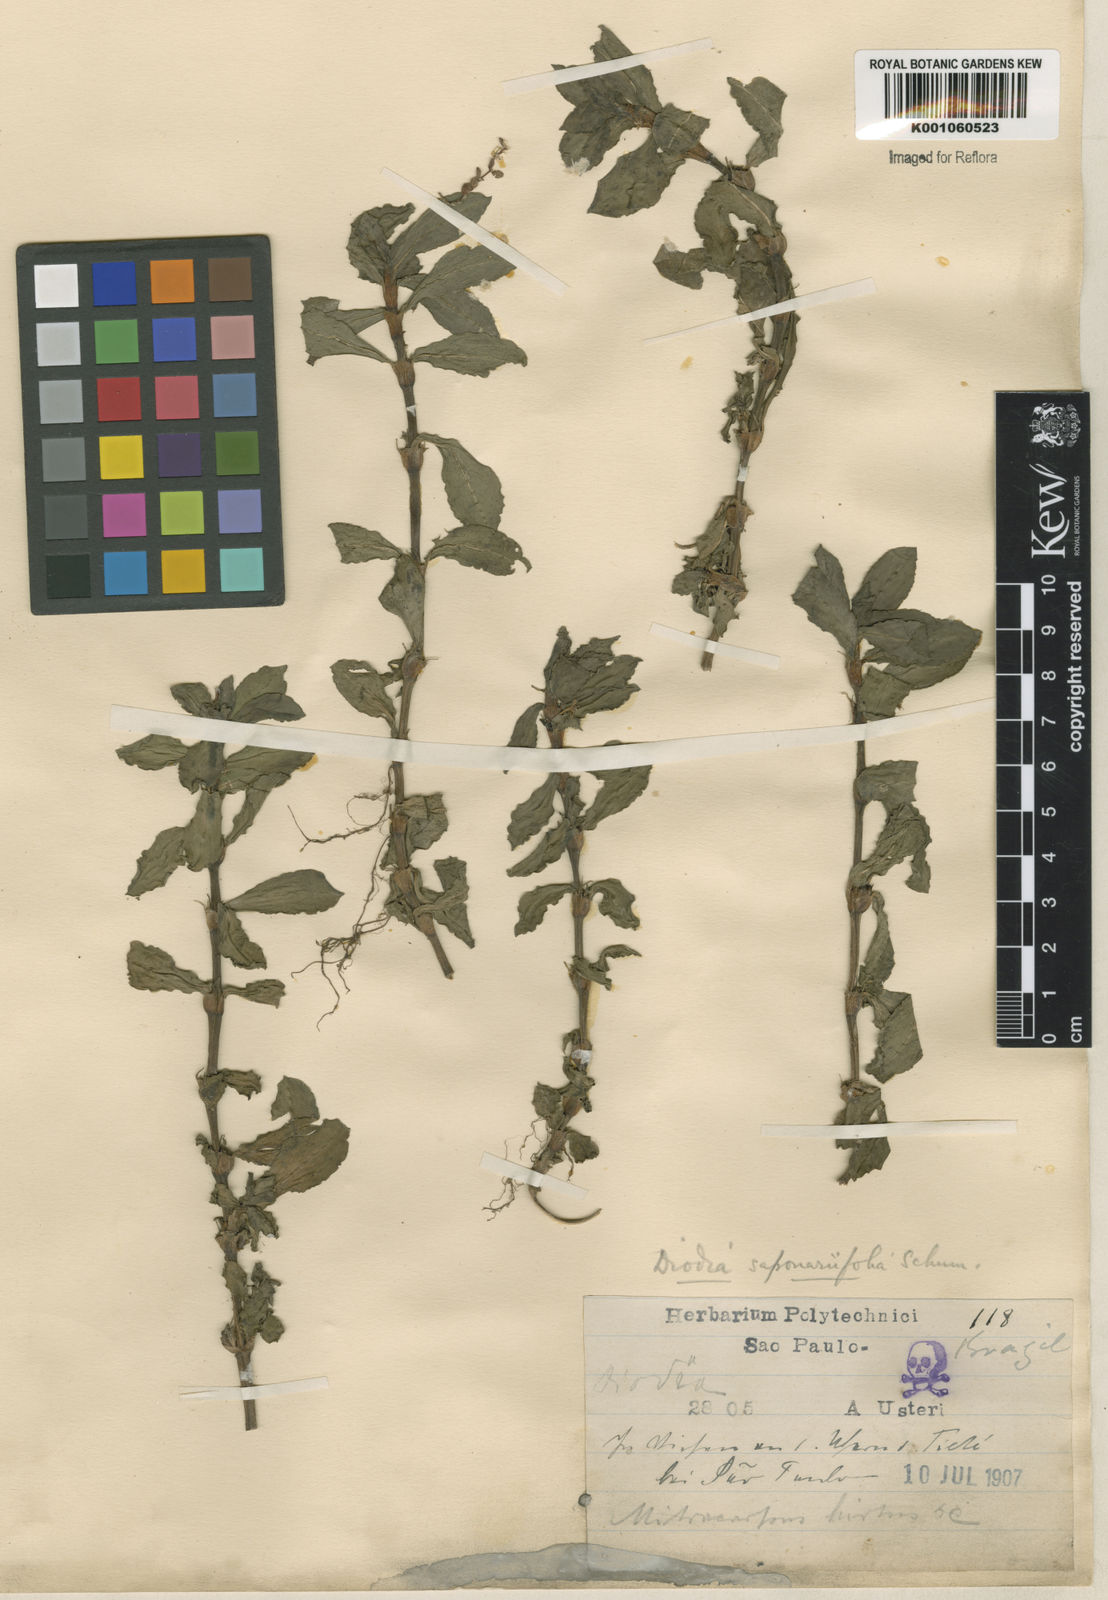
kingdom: Plantae
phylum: Tracheophyta
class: Magnoliopsida
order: Gentianales
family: Rubiaceae
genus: Diodia
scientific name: Diodia saponariifolia
